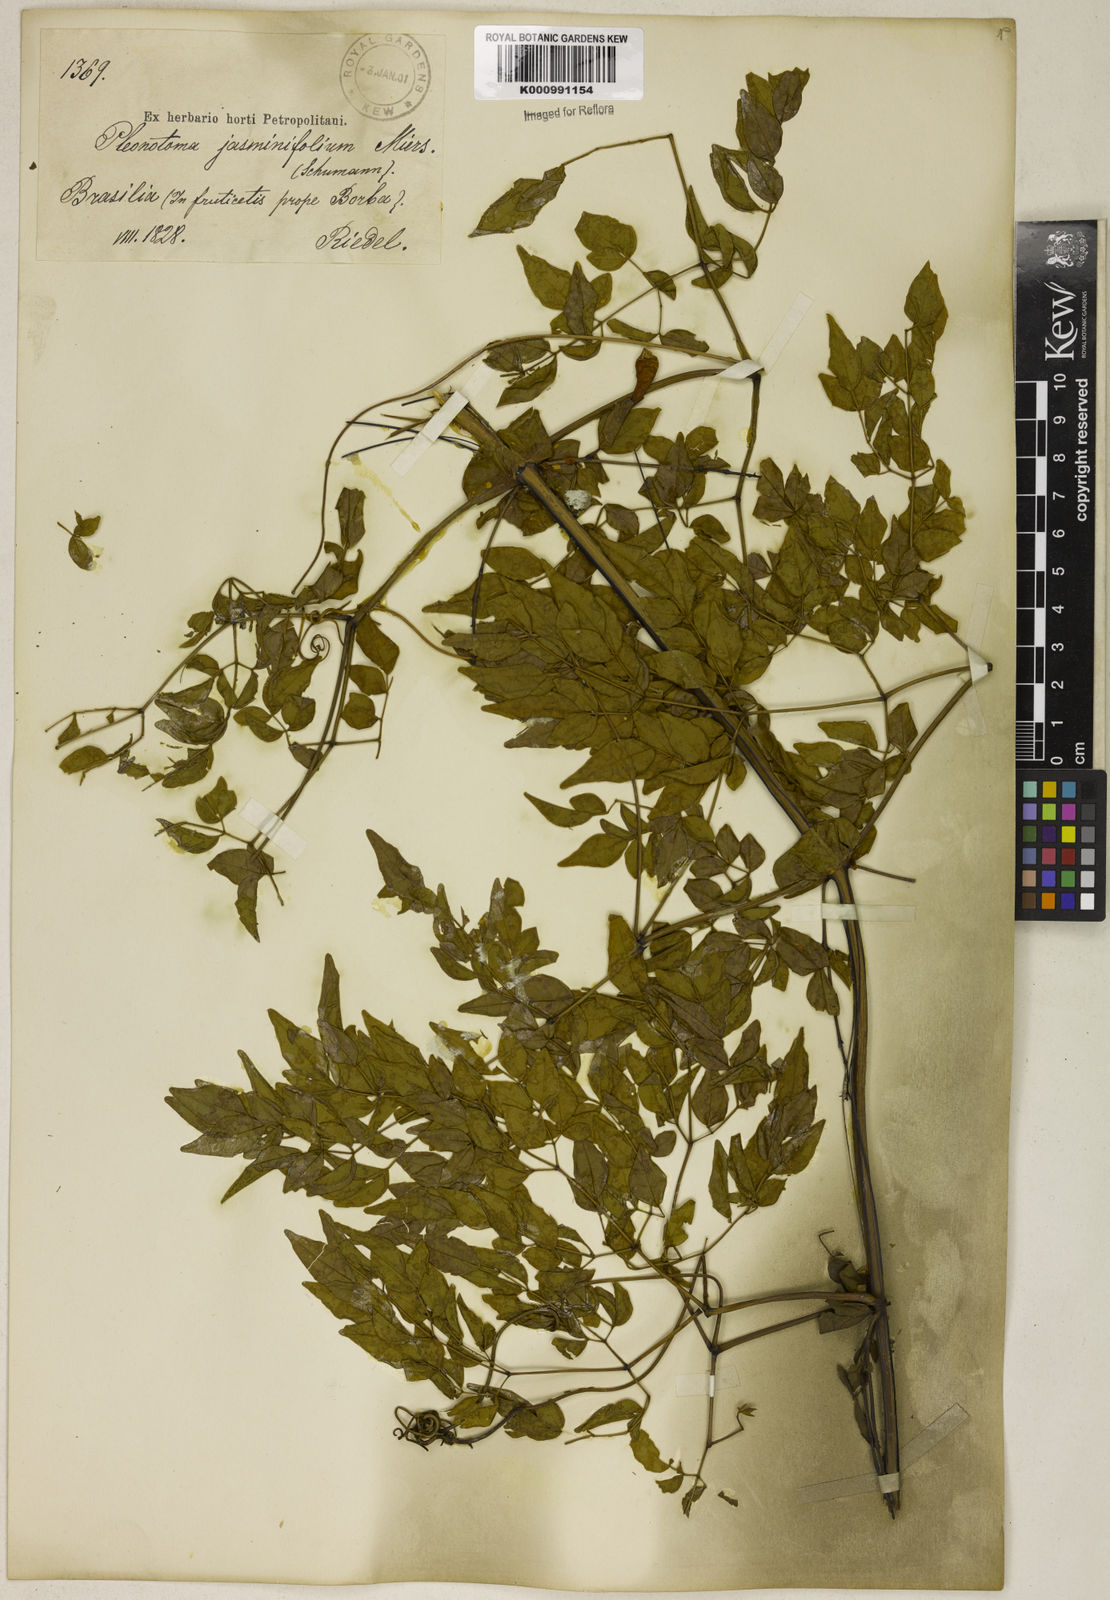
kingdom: Plantae
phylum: Tracheophyta
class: Magnoliopsida
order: Lamiales
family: Bignoniaceae
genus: Pleonotoma
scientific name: Pleonotoma jasminifolia
